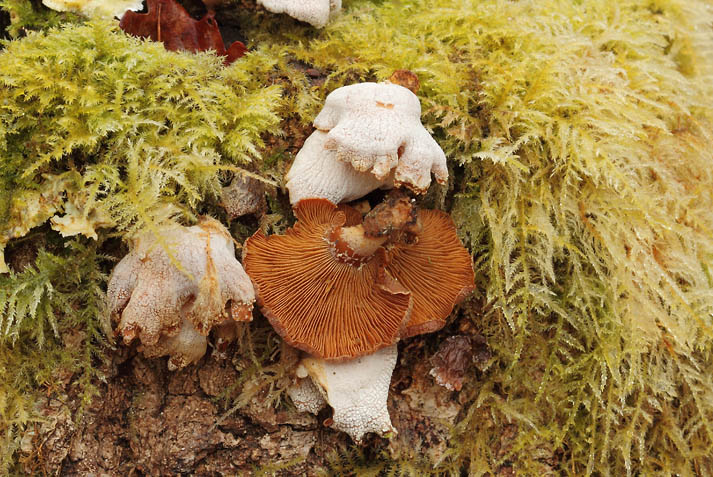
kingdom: Fungi
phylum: Basidiomycota
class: Agaricomycetes
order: Agaricales
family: Mycenaceae
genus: Panellus
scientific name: Panellus stipticus
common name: kliddet epaulethat
